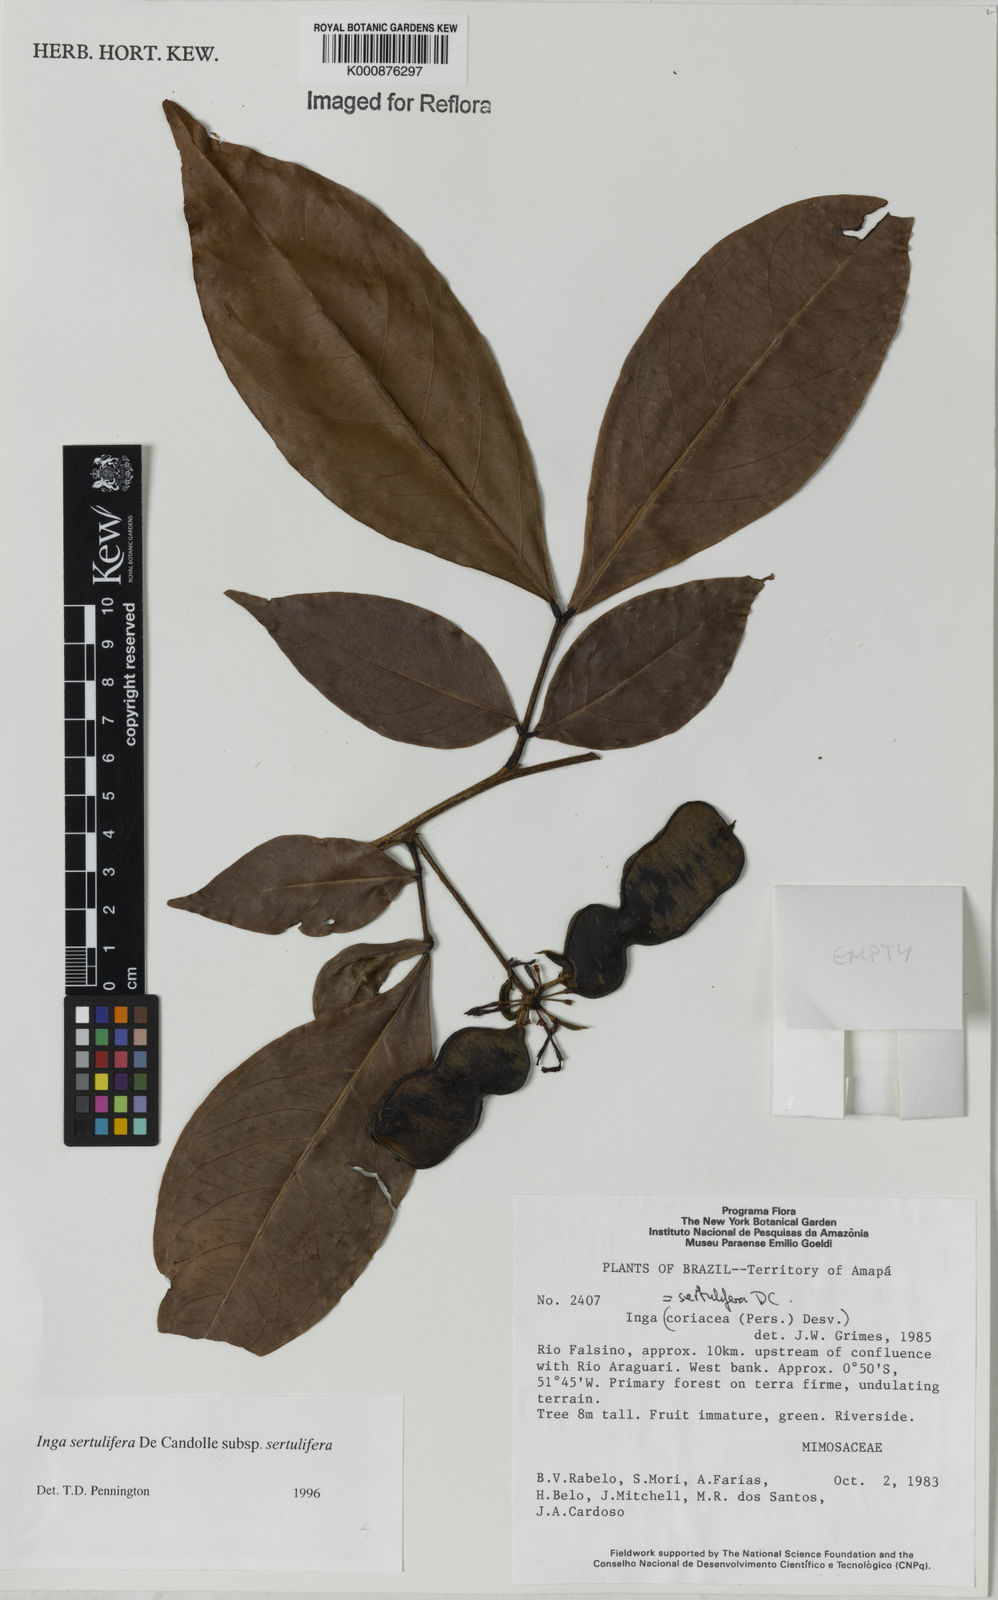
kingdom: Plantae
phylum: Tracheophyta
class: Magnoliopsida
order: Fabales
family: Fabaceae
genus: Inga
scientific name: Inga sertulifera
